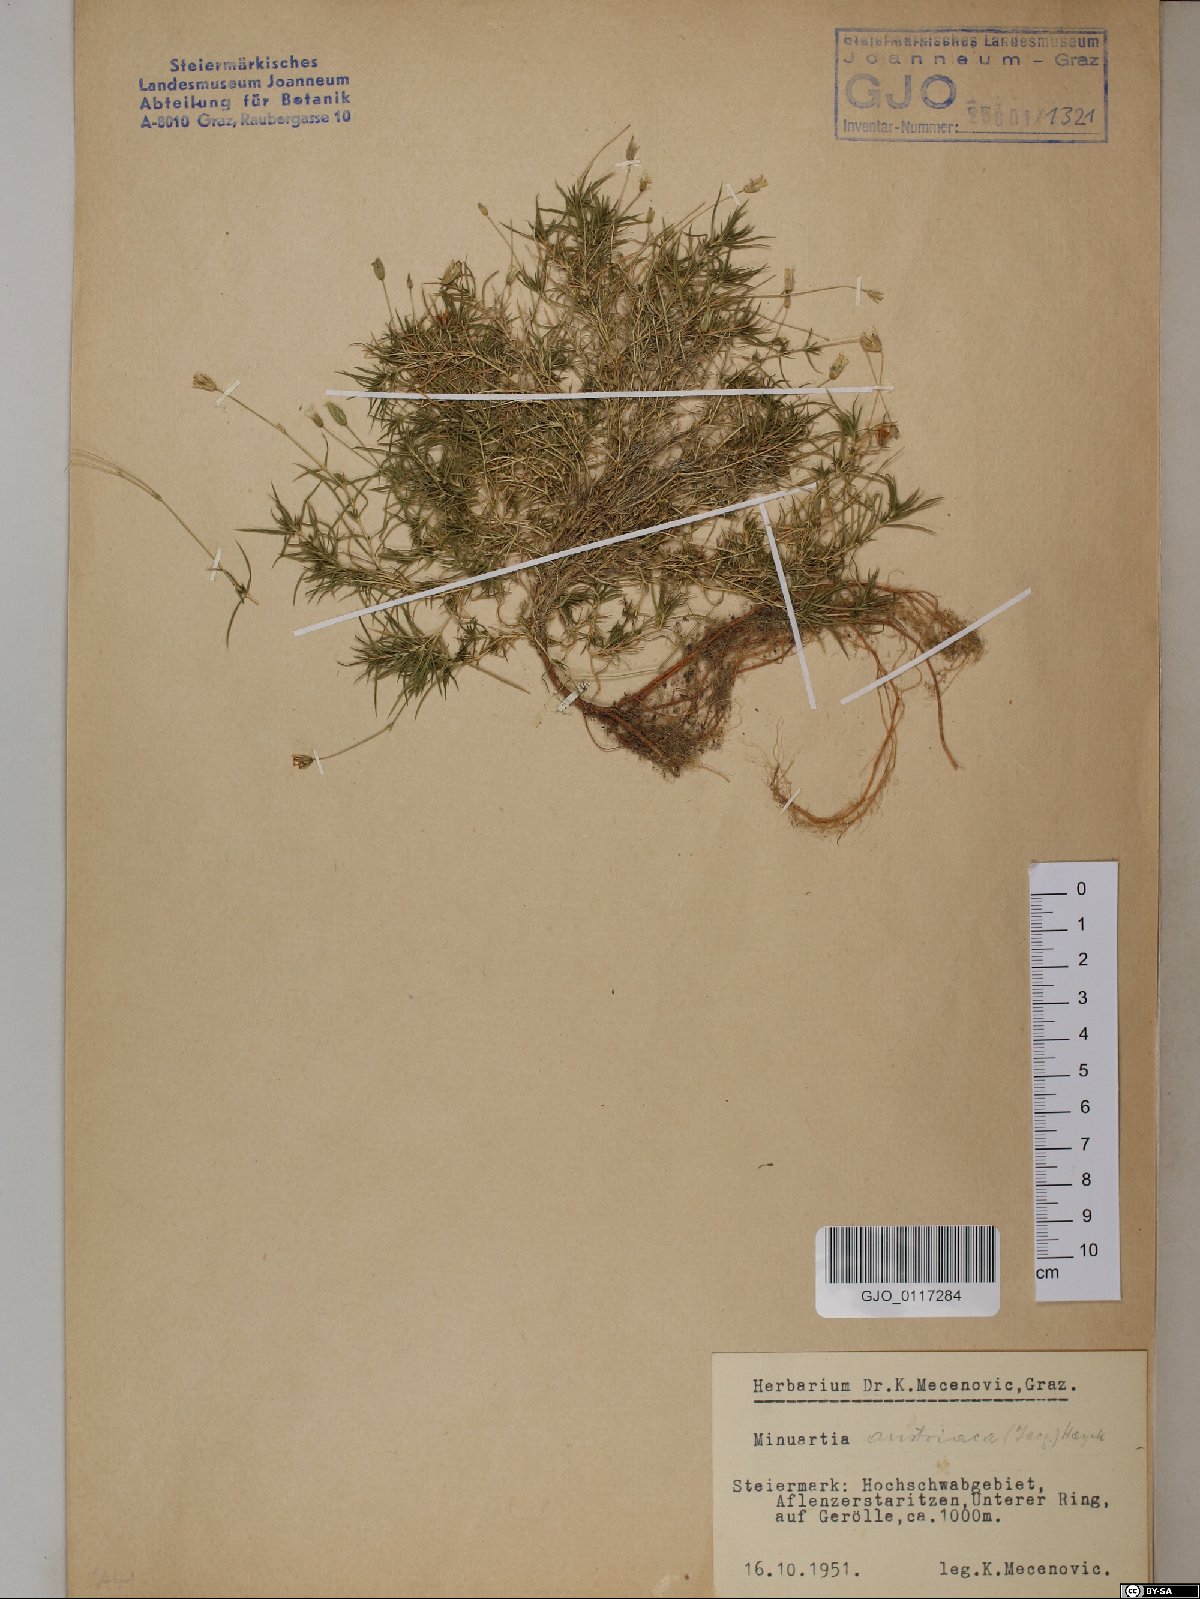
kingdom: Plantae
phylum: Tracheophyta
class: Magnoliopsida
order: Caryophyllales
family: Caryophyllaceae
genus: Sabulina
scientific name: Sabulina austriaca
